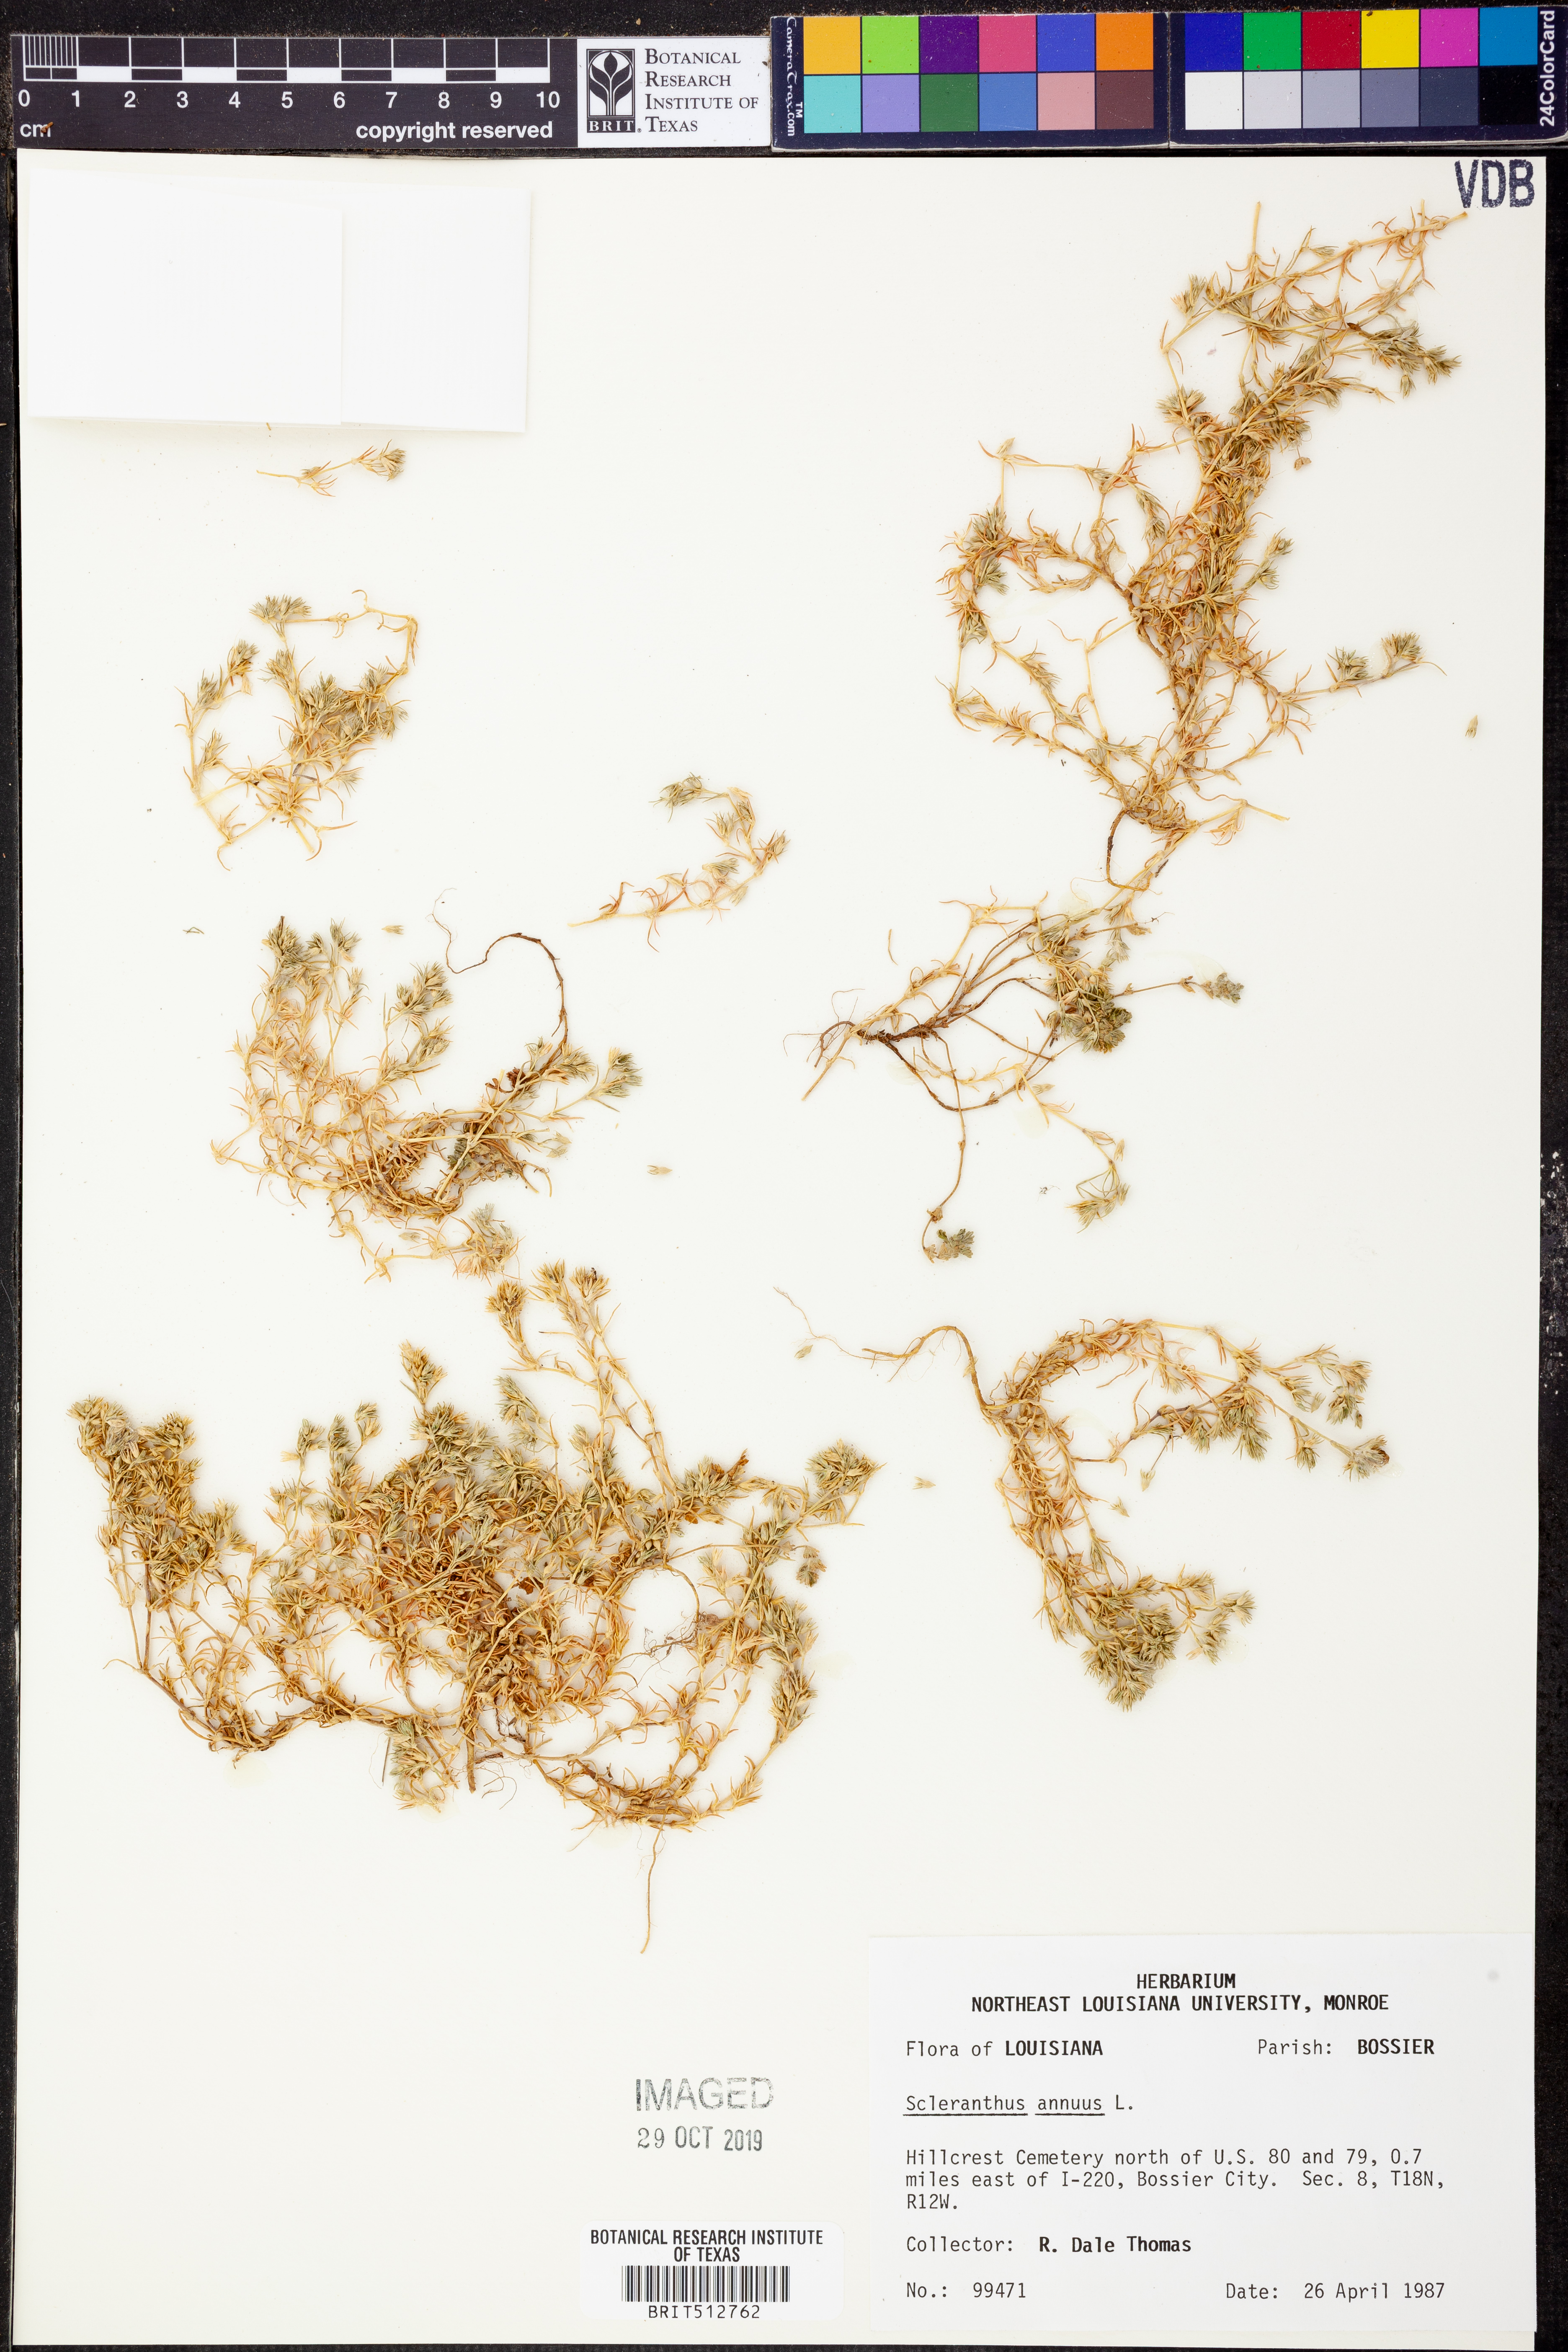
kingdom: Plantae
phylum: Tracheophyta
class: Magnoliopsida
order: Caryophyllales
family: Caryophyllaceae
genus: Scleranthus
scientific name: Scleranthus annuus
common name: Annual knawel
